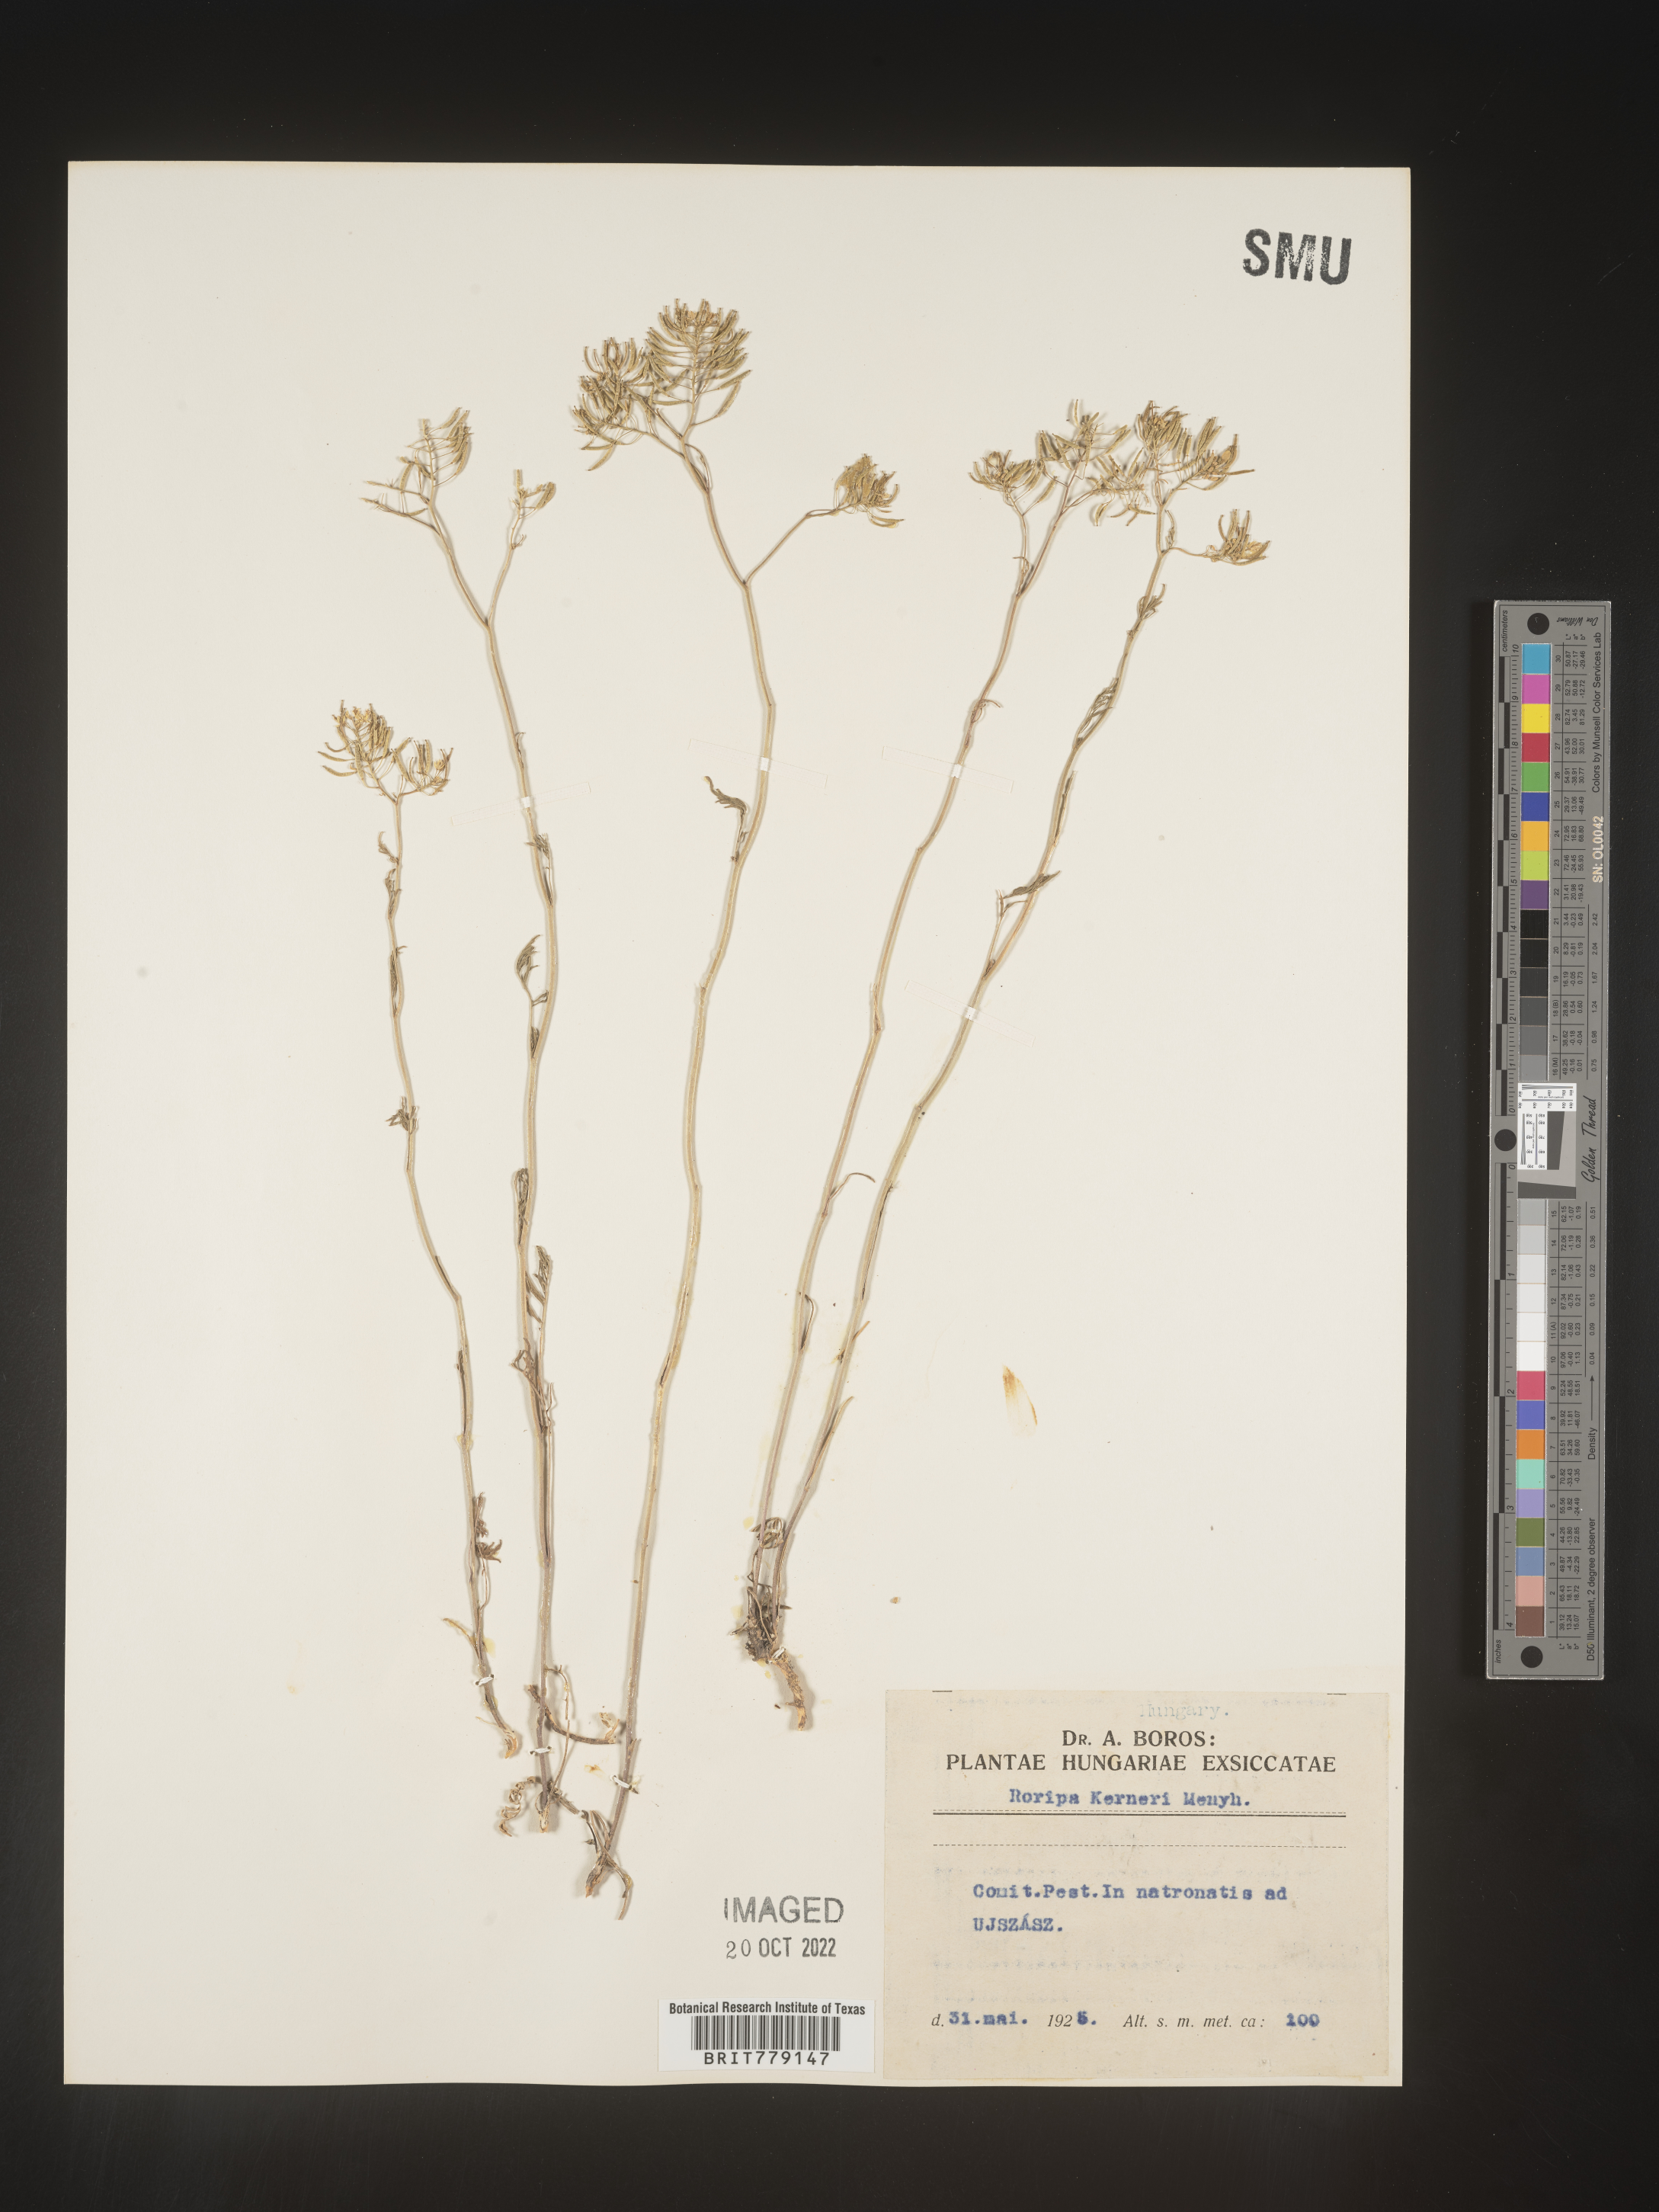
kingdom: Plantae
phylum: Tracheophyta
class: Magnoliopsida
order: Brassicales
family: Brassicaceae
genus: Rorippa
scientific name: Rorippa
